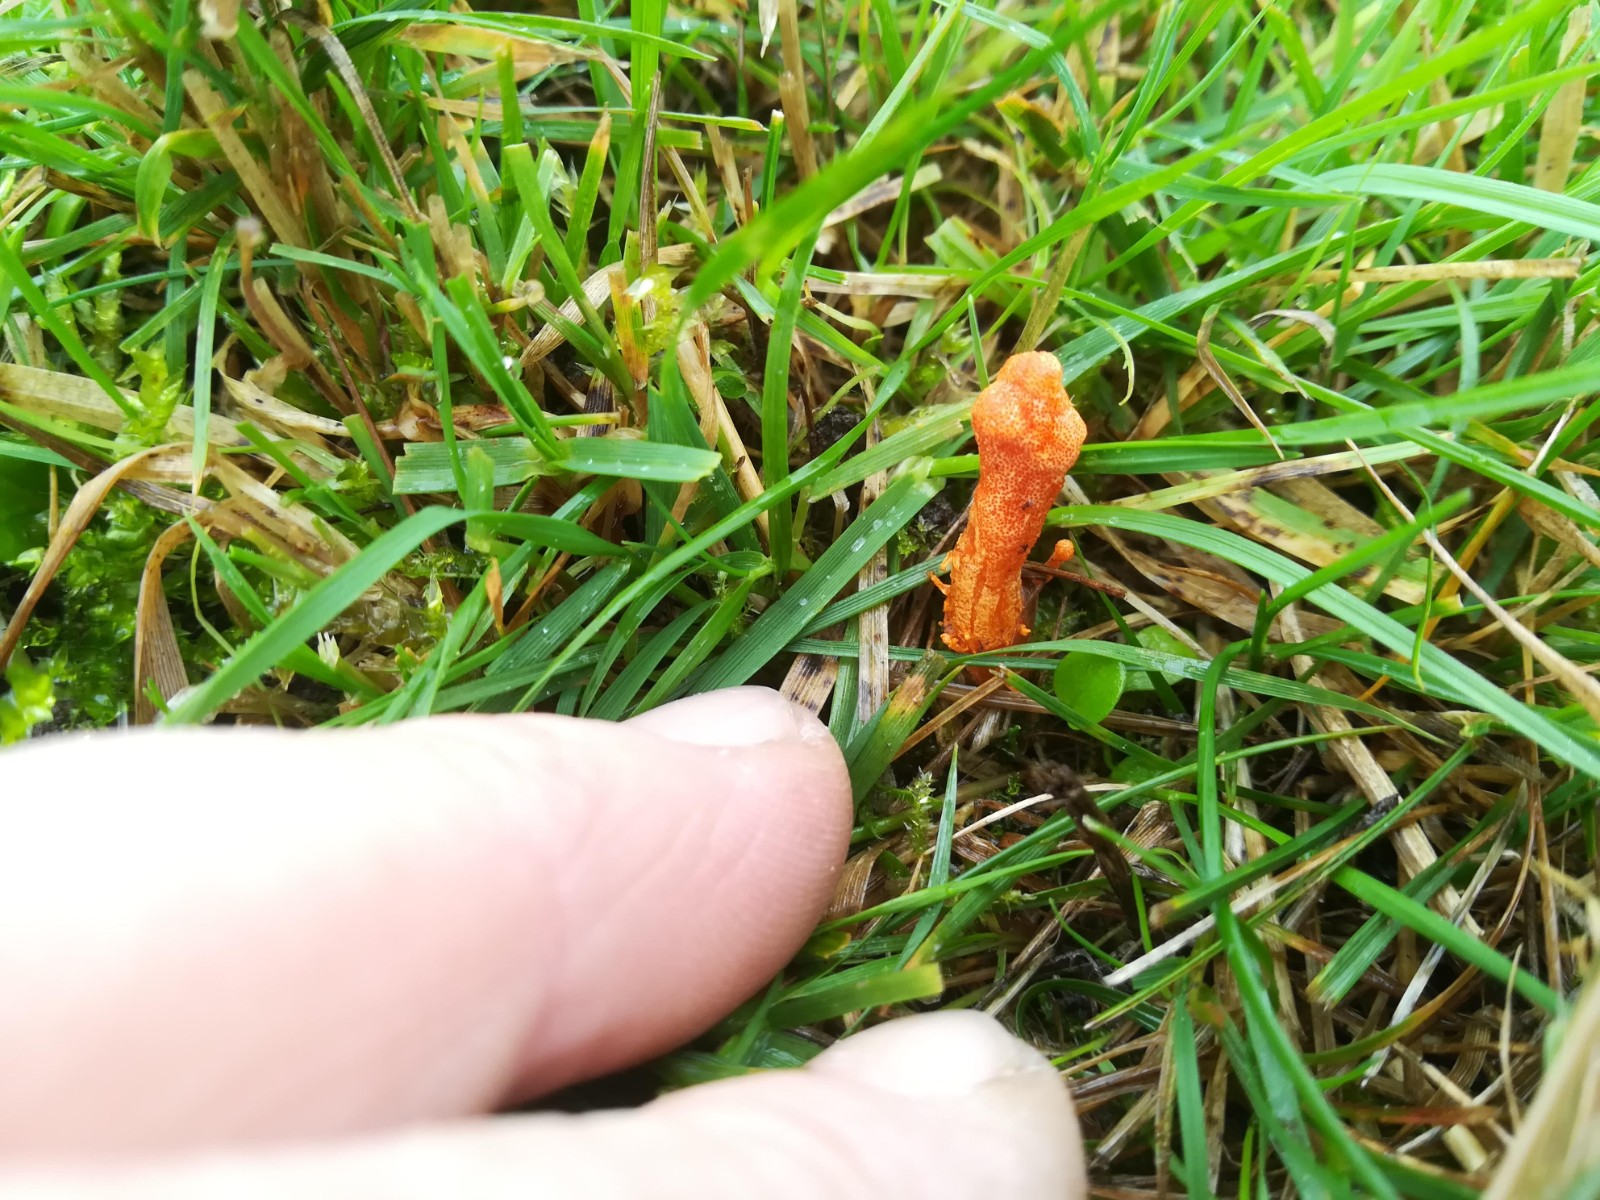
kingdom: Fungi
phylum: Ascomycota
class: Sordariomycetes
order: Hypocreales
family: Cordycipitaceae
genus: Cordyceps
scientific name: Cordyceps militaris
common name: puppe-snyltekølle
